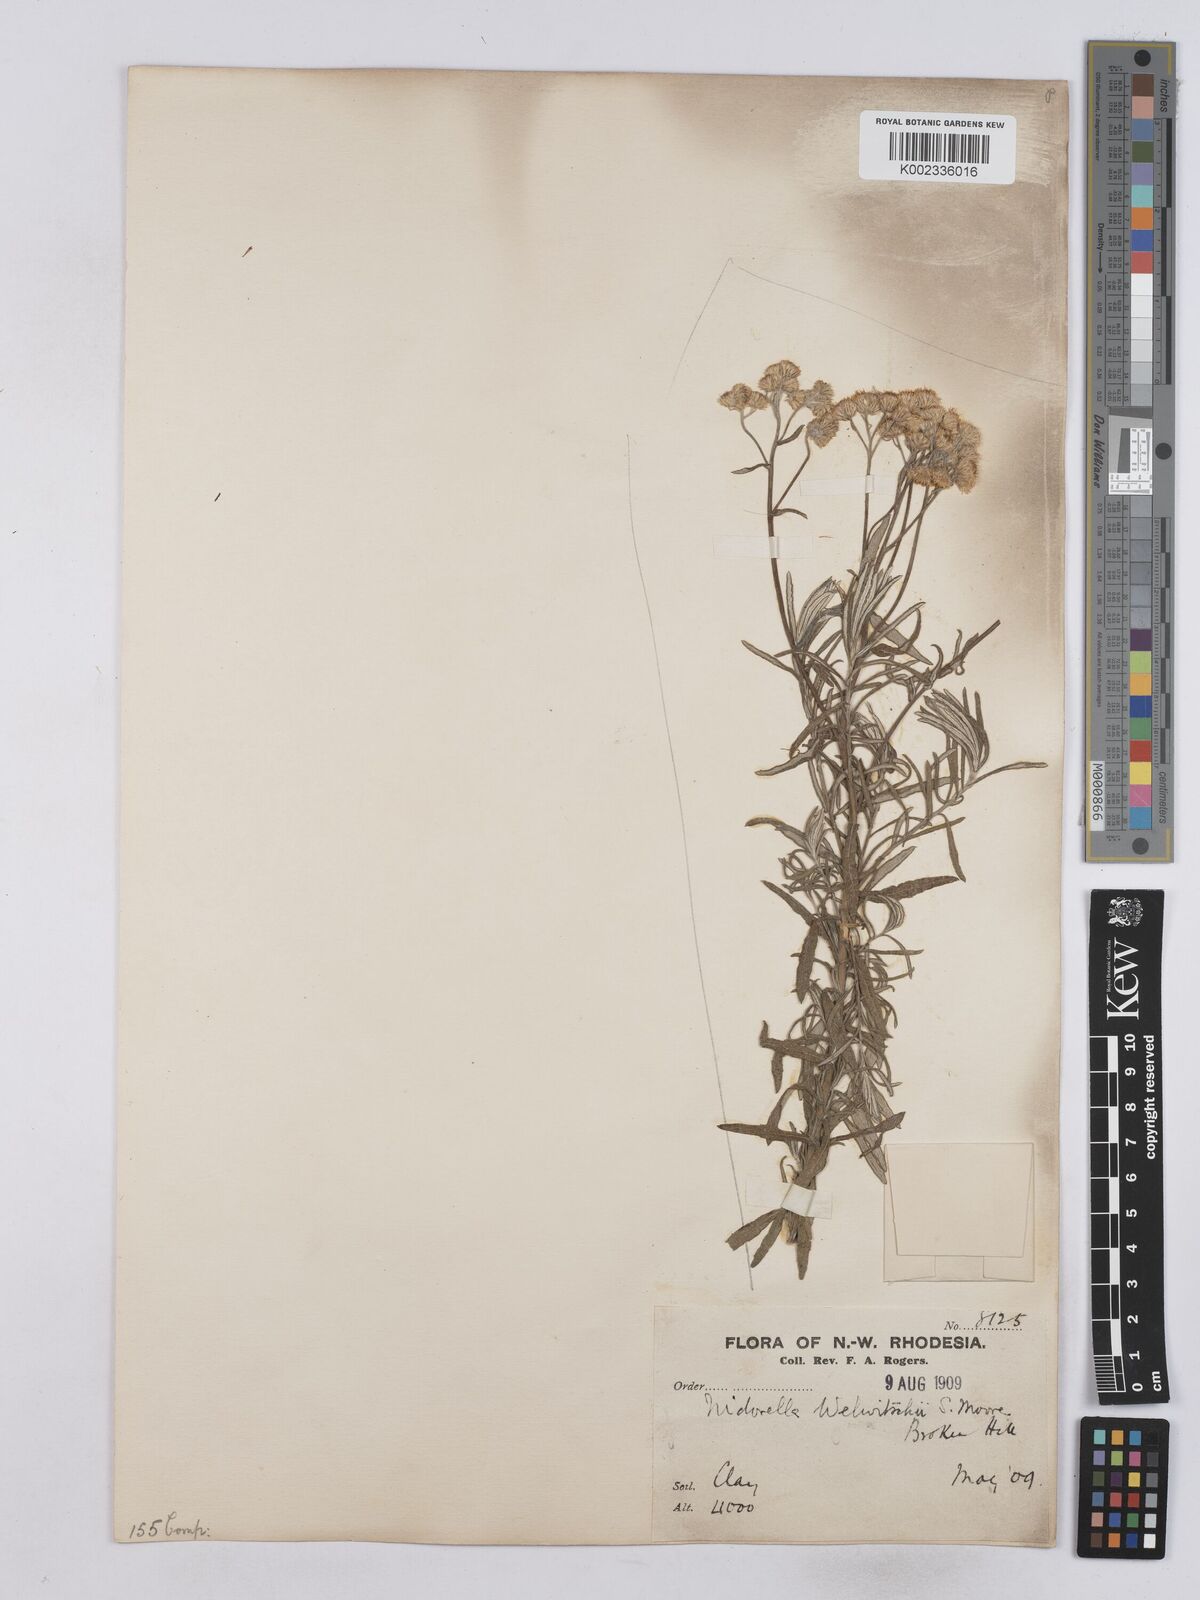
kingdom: Plantae
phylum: Tracheophyta
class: Magnoliopsida
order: Asterales
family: Asteraceae
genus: Nidorella
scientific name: Nidorella welwitschii
